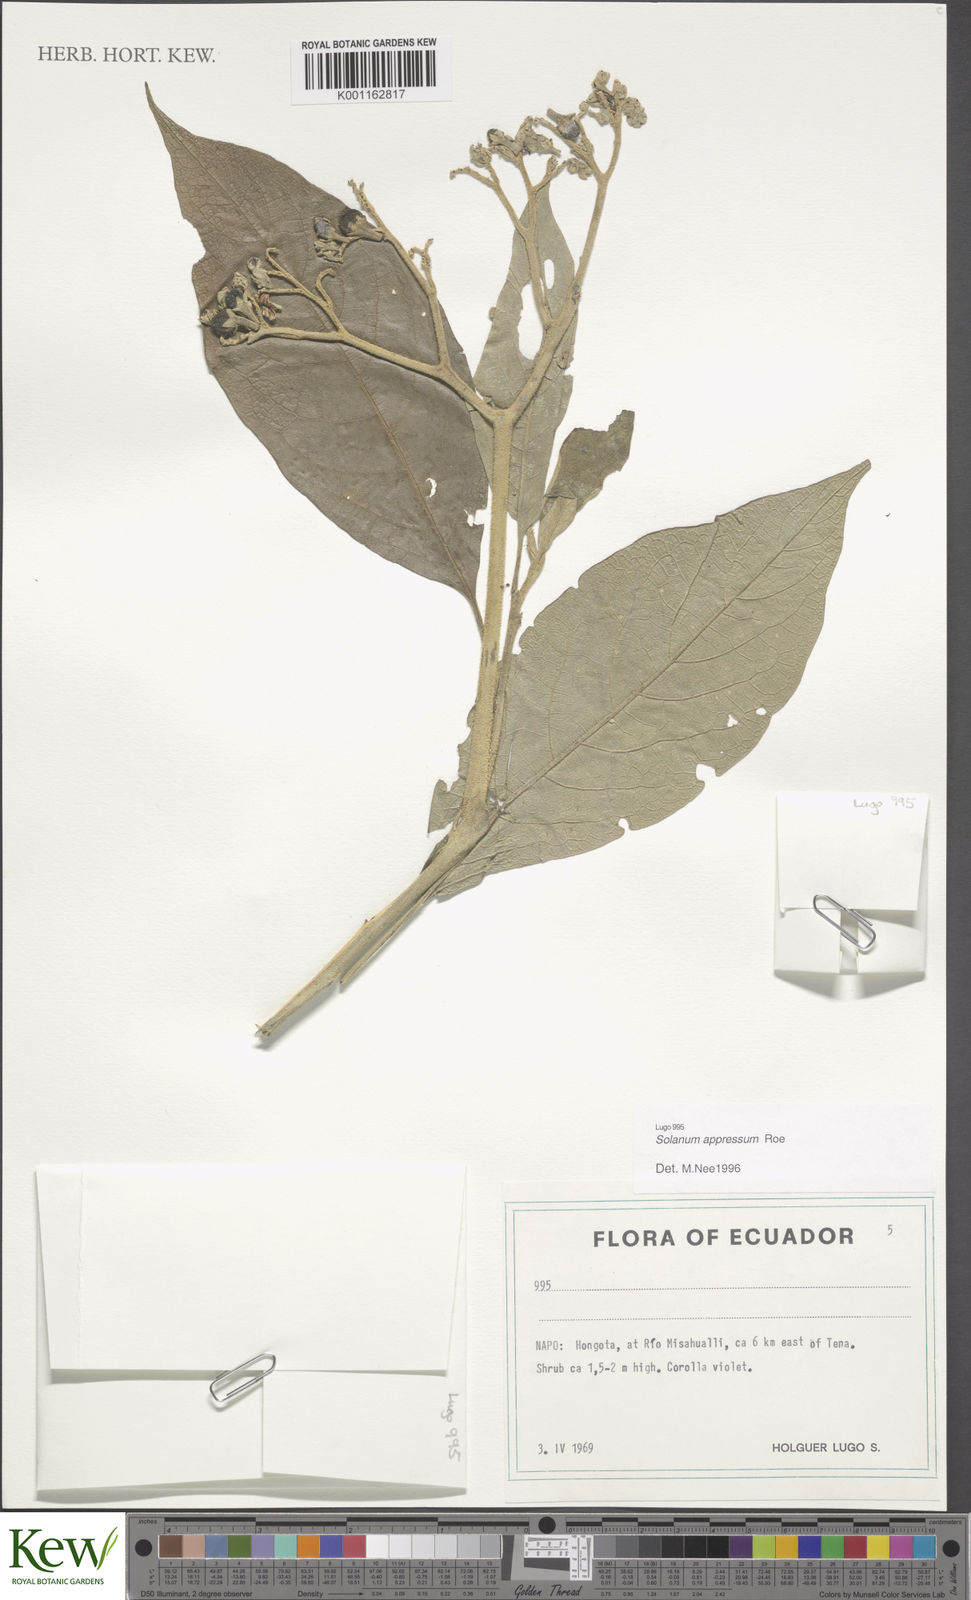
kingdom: Plantae
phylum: Tracheophyta
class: Magnoliopsida
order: Solanales
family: Solanaceae
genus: Solanum
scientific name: Solanum appressum
